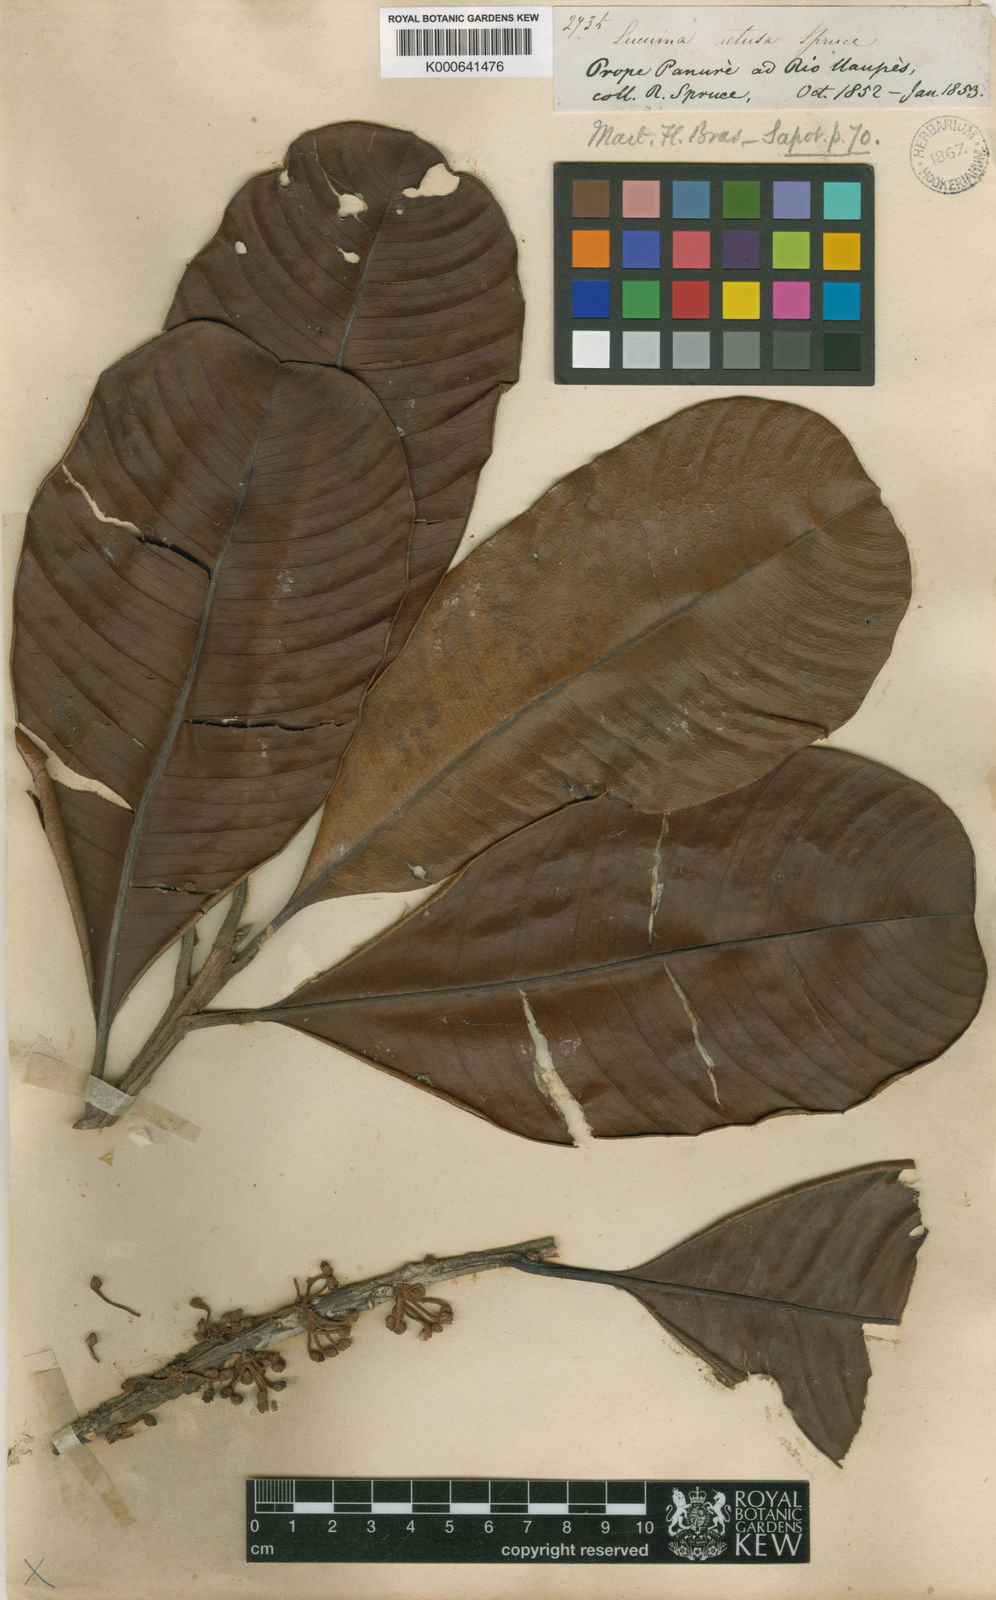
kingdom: Plantae
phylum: Tracheophyta
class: Magnoliopsida
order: Ericales
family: Sapotaceae
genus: Micropholis
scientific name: Micropholis retusa
